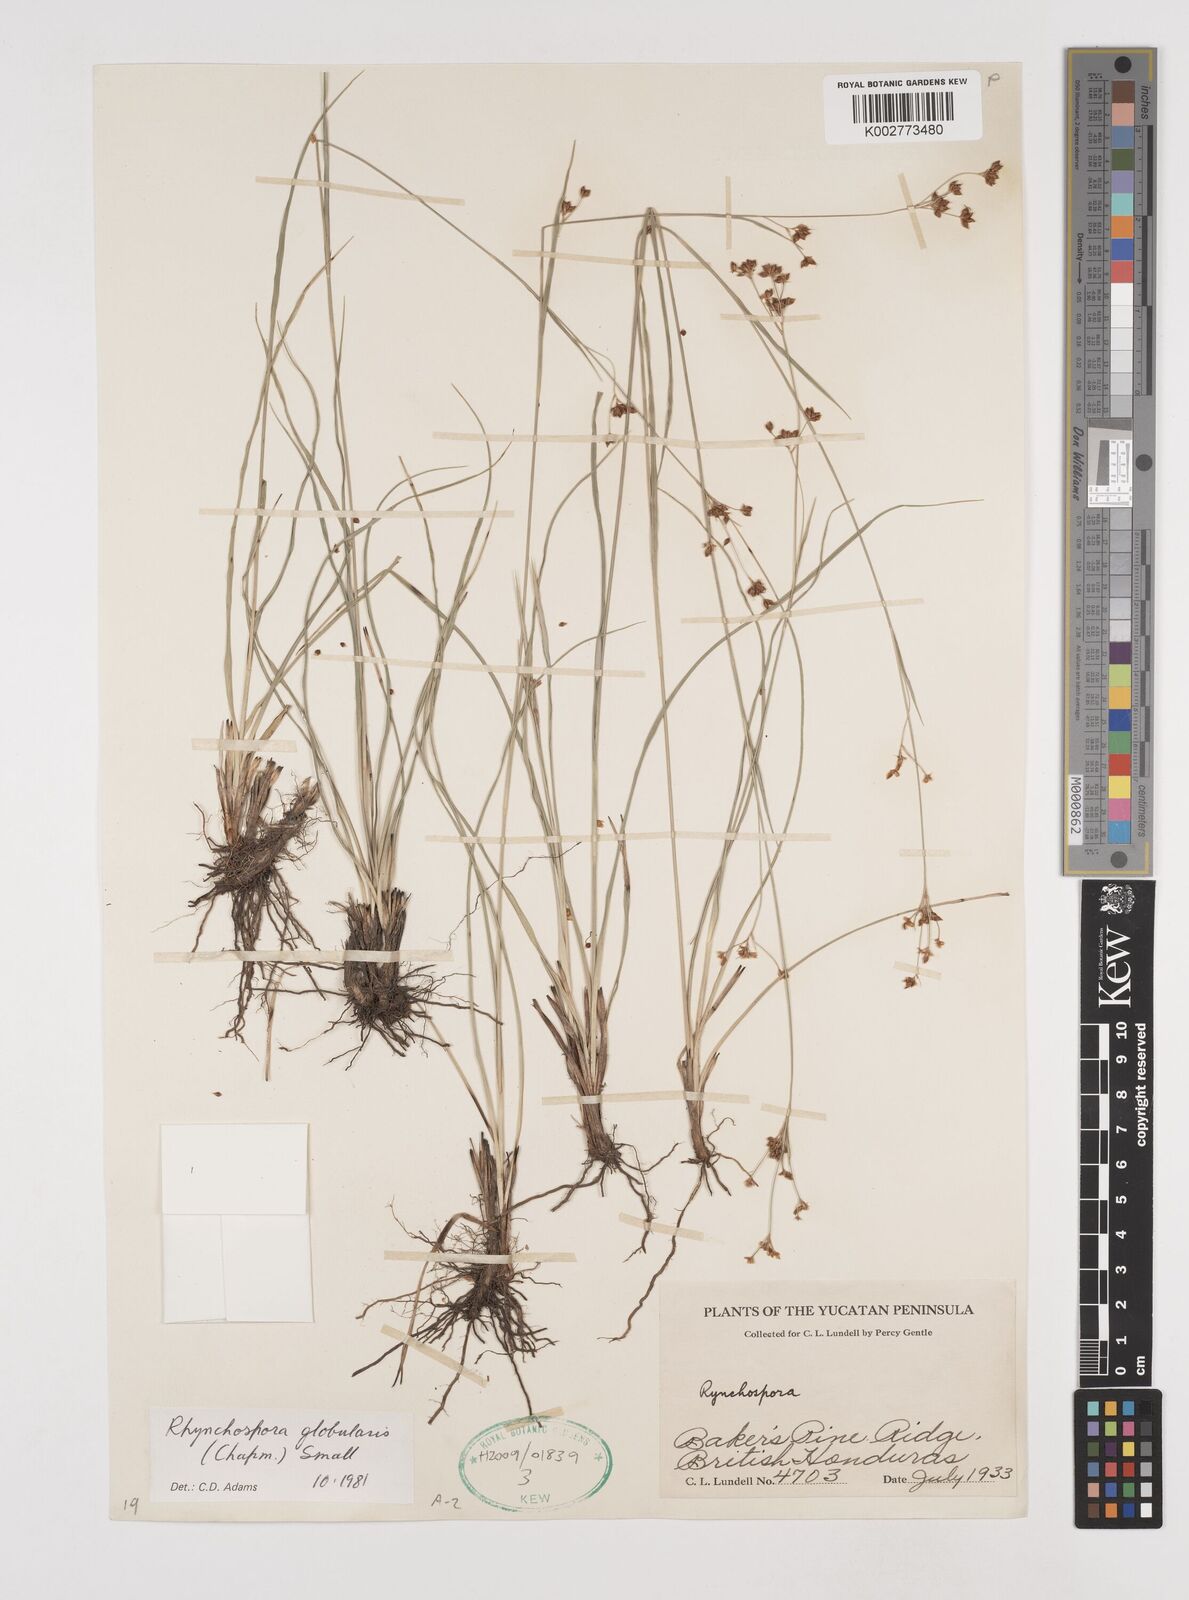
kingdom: Plantae
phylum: Tracheophyta
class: Liliopsida
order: Poales
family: Cyperaceae
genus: Rhynchospora
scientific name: Rhynchospora globularis
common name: Globe beaksedge
